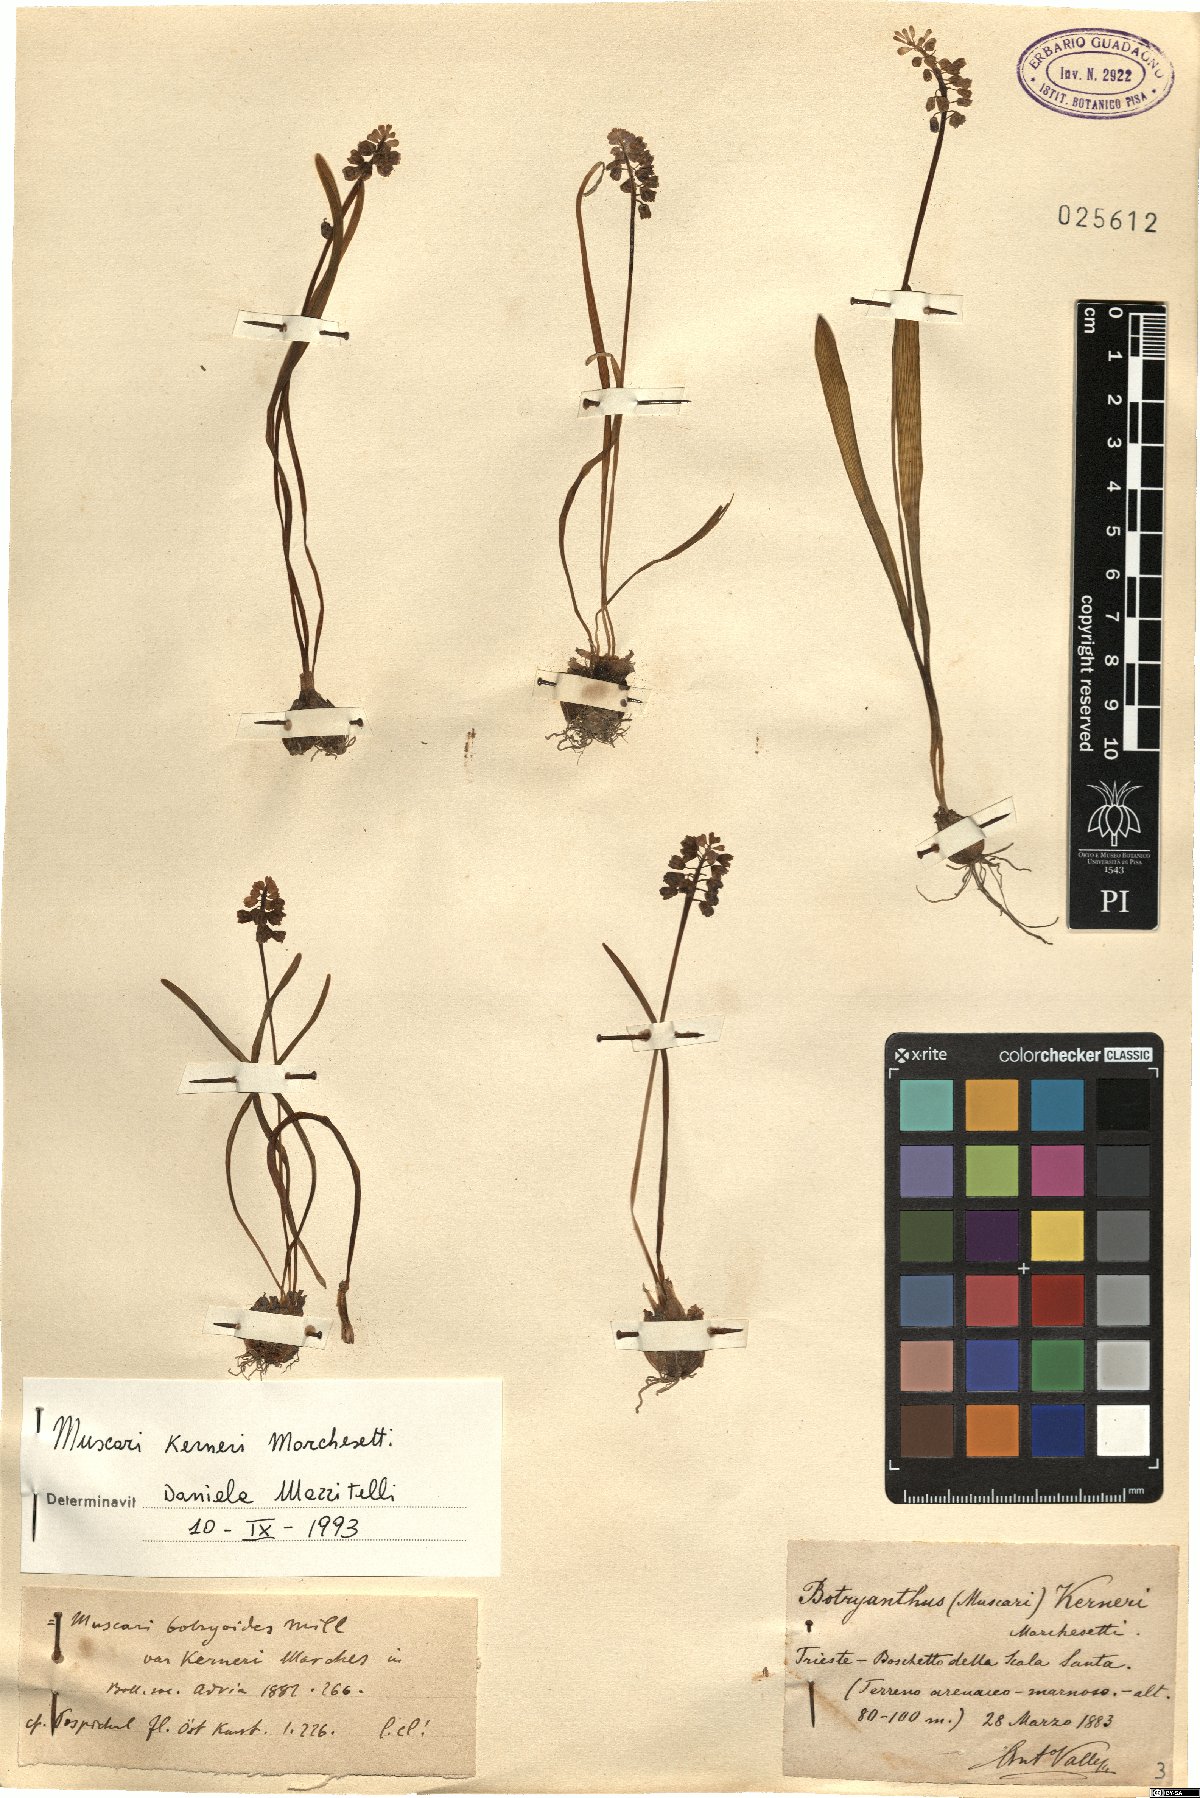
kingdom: Plantae
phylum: Tracheophyta
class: Liliopsida
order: Asparagales
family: Asparagaceae
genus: Muscari
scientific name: Muscari botryoides
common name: Compact grape-hyacinth
